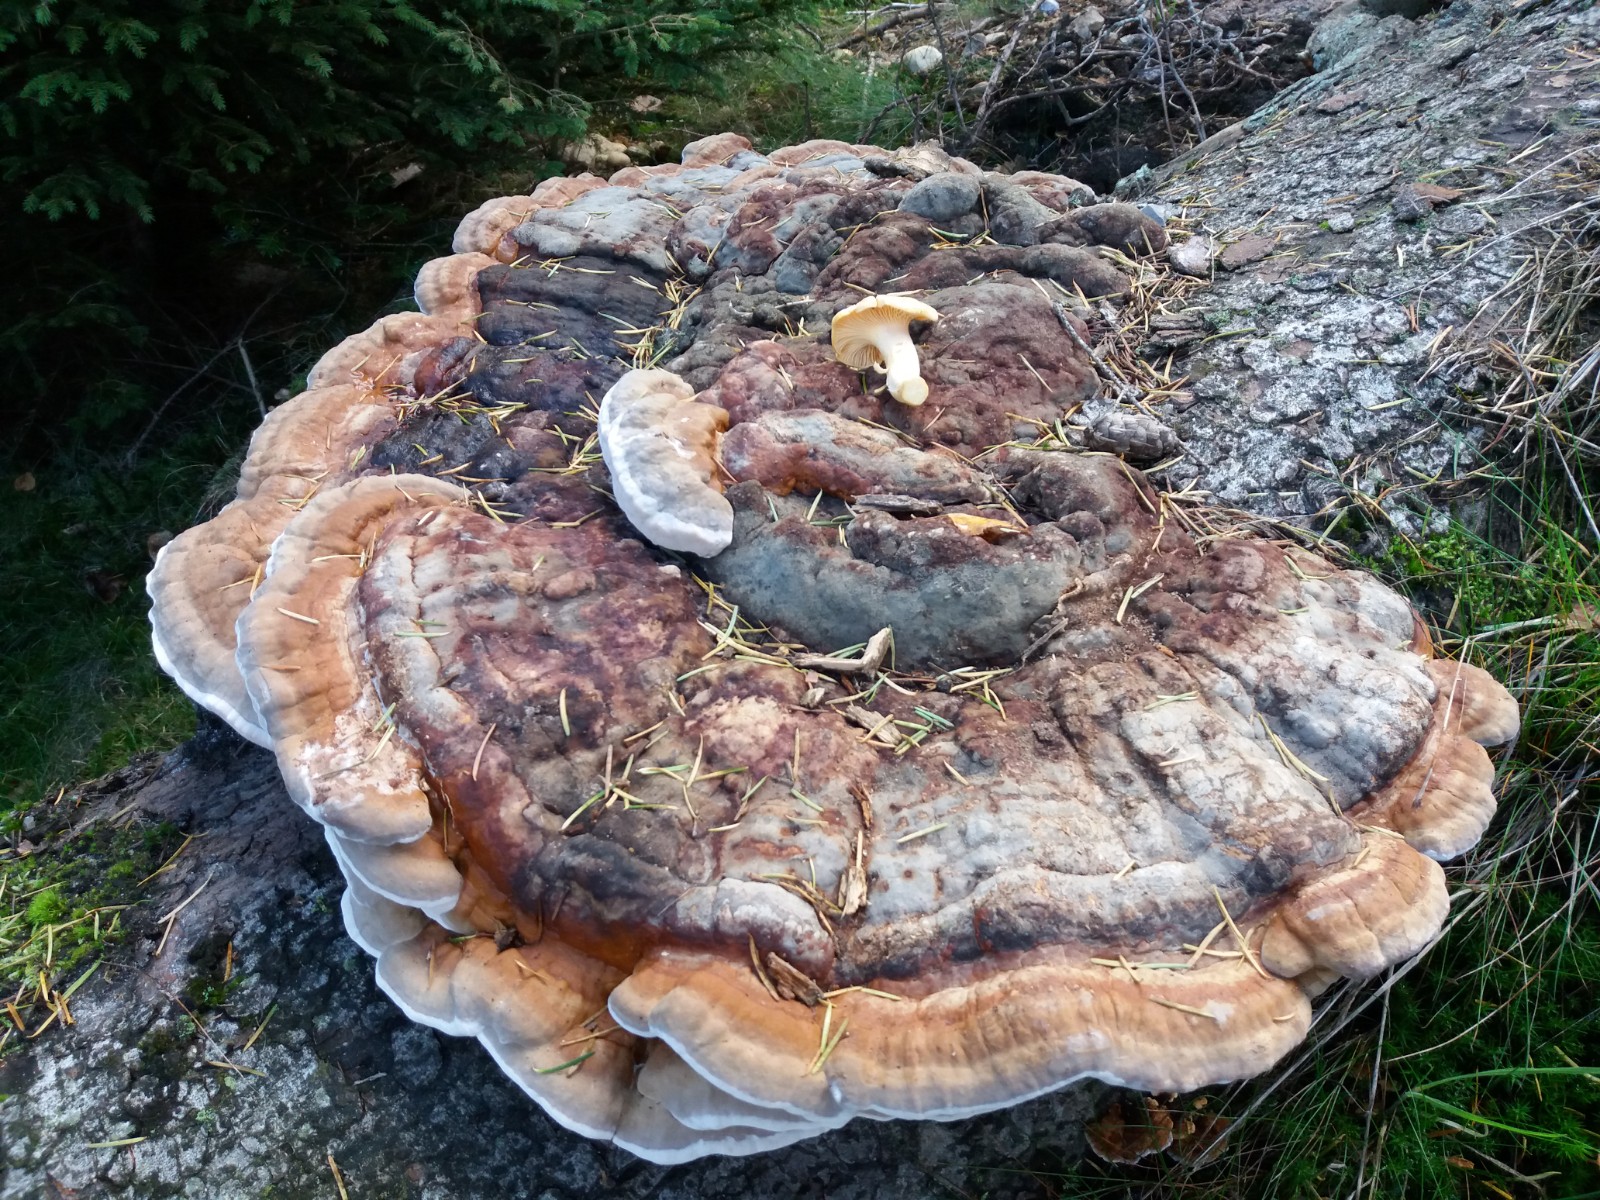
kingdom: Fungi
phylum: Basidiomycota
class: Agaricomycetes
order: Polyporales
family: Fomitopsidaceae
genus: Fomitopsis
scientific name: Fomitopsis pinicola
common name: randbæltet hovporesvamp
